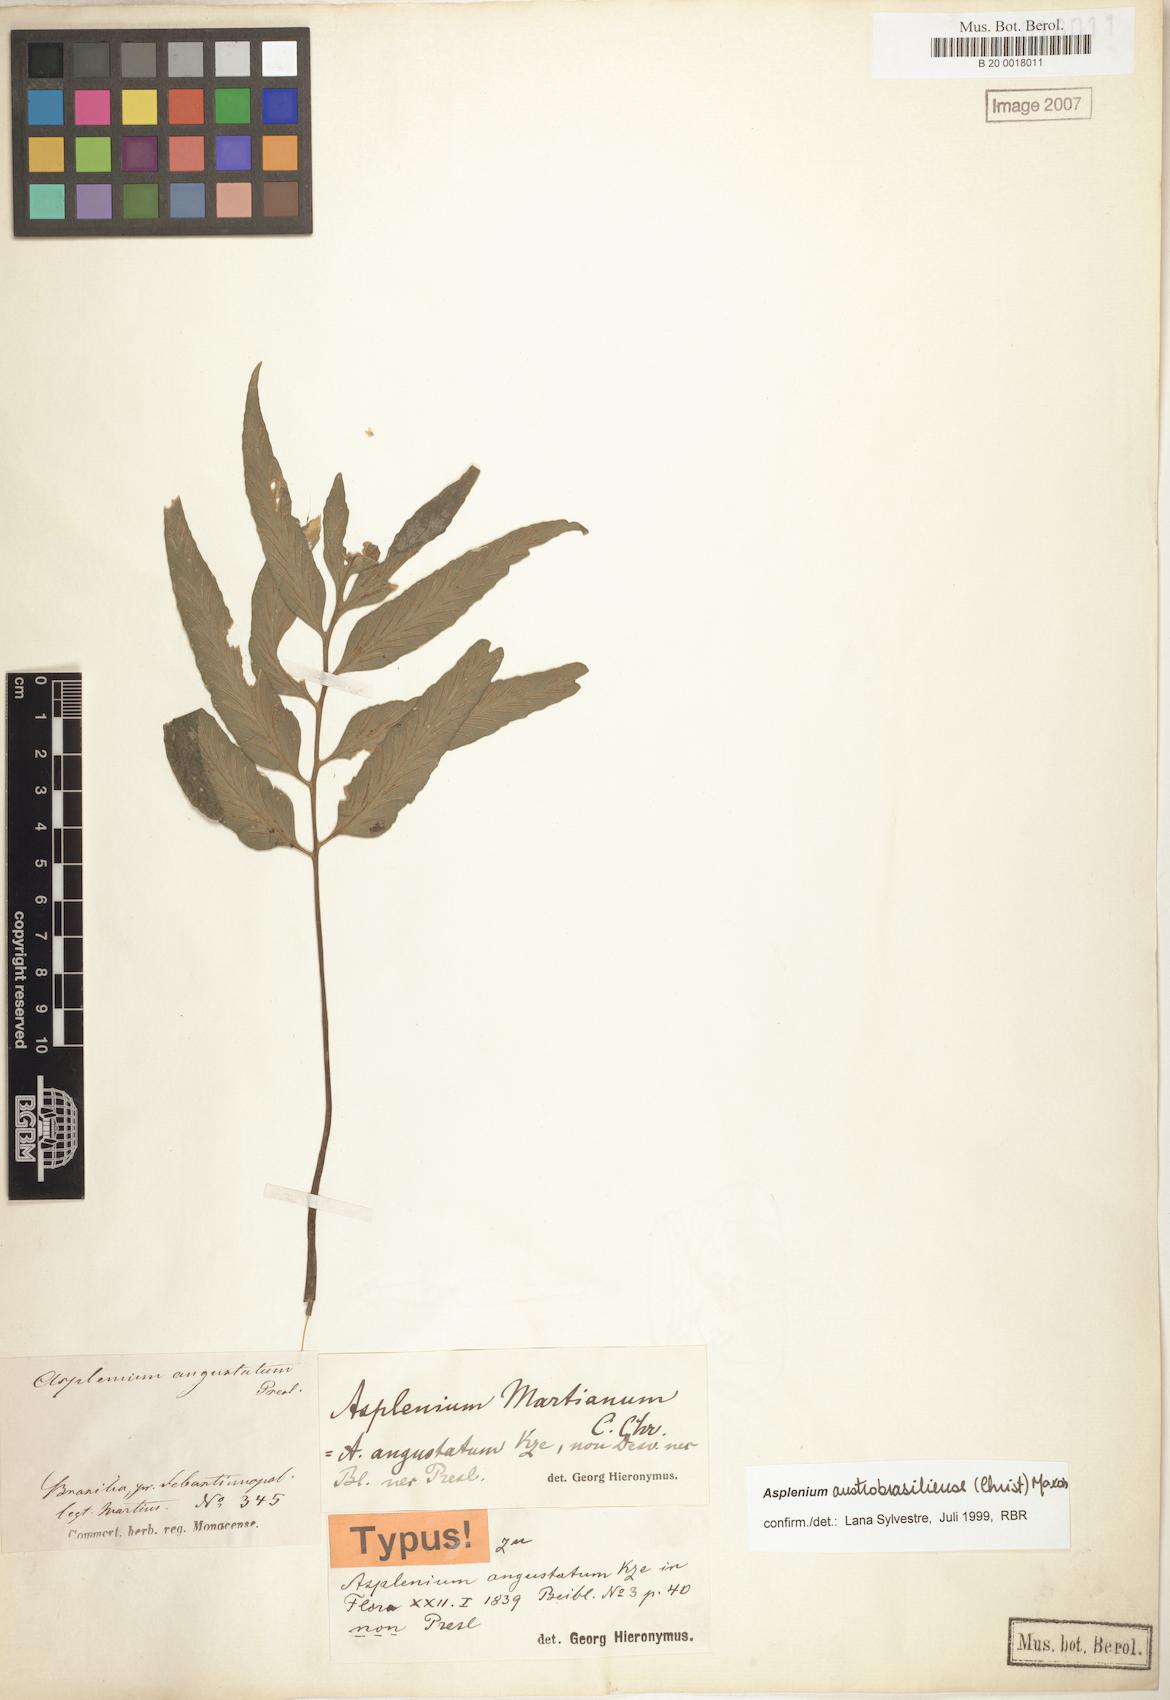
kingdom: Plantae
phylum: Tracheophyta
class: Polypodiopsida
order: Polypodiales
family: Aspleniaceae
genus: Asplenium
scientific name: Asplenium austrobrasiliense
